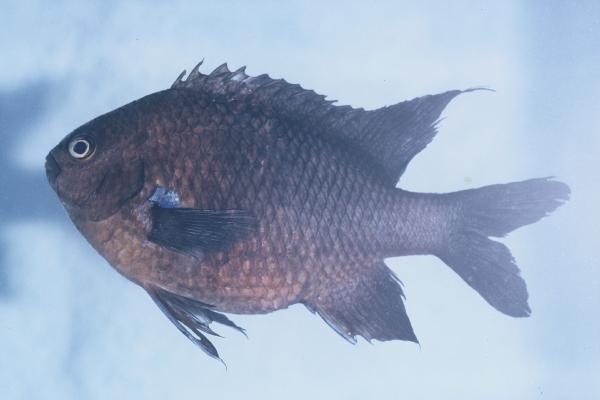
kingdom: Animalia
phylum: Chordata
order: Perciformes
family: Pomacentridae
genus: Abudefduf
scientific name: Abudefduf luridus
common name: Canary damsel
